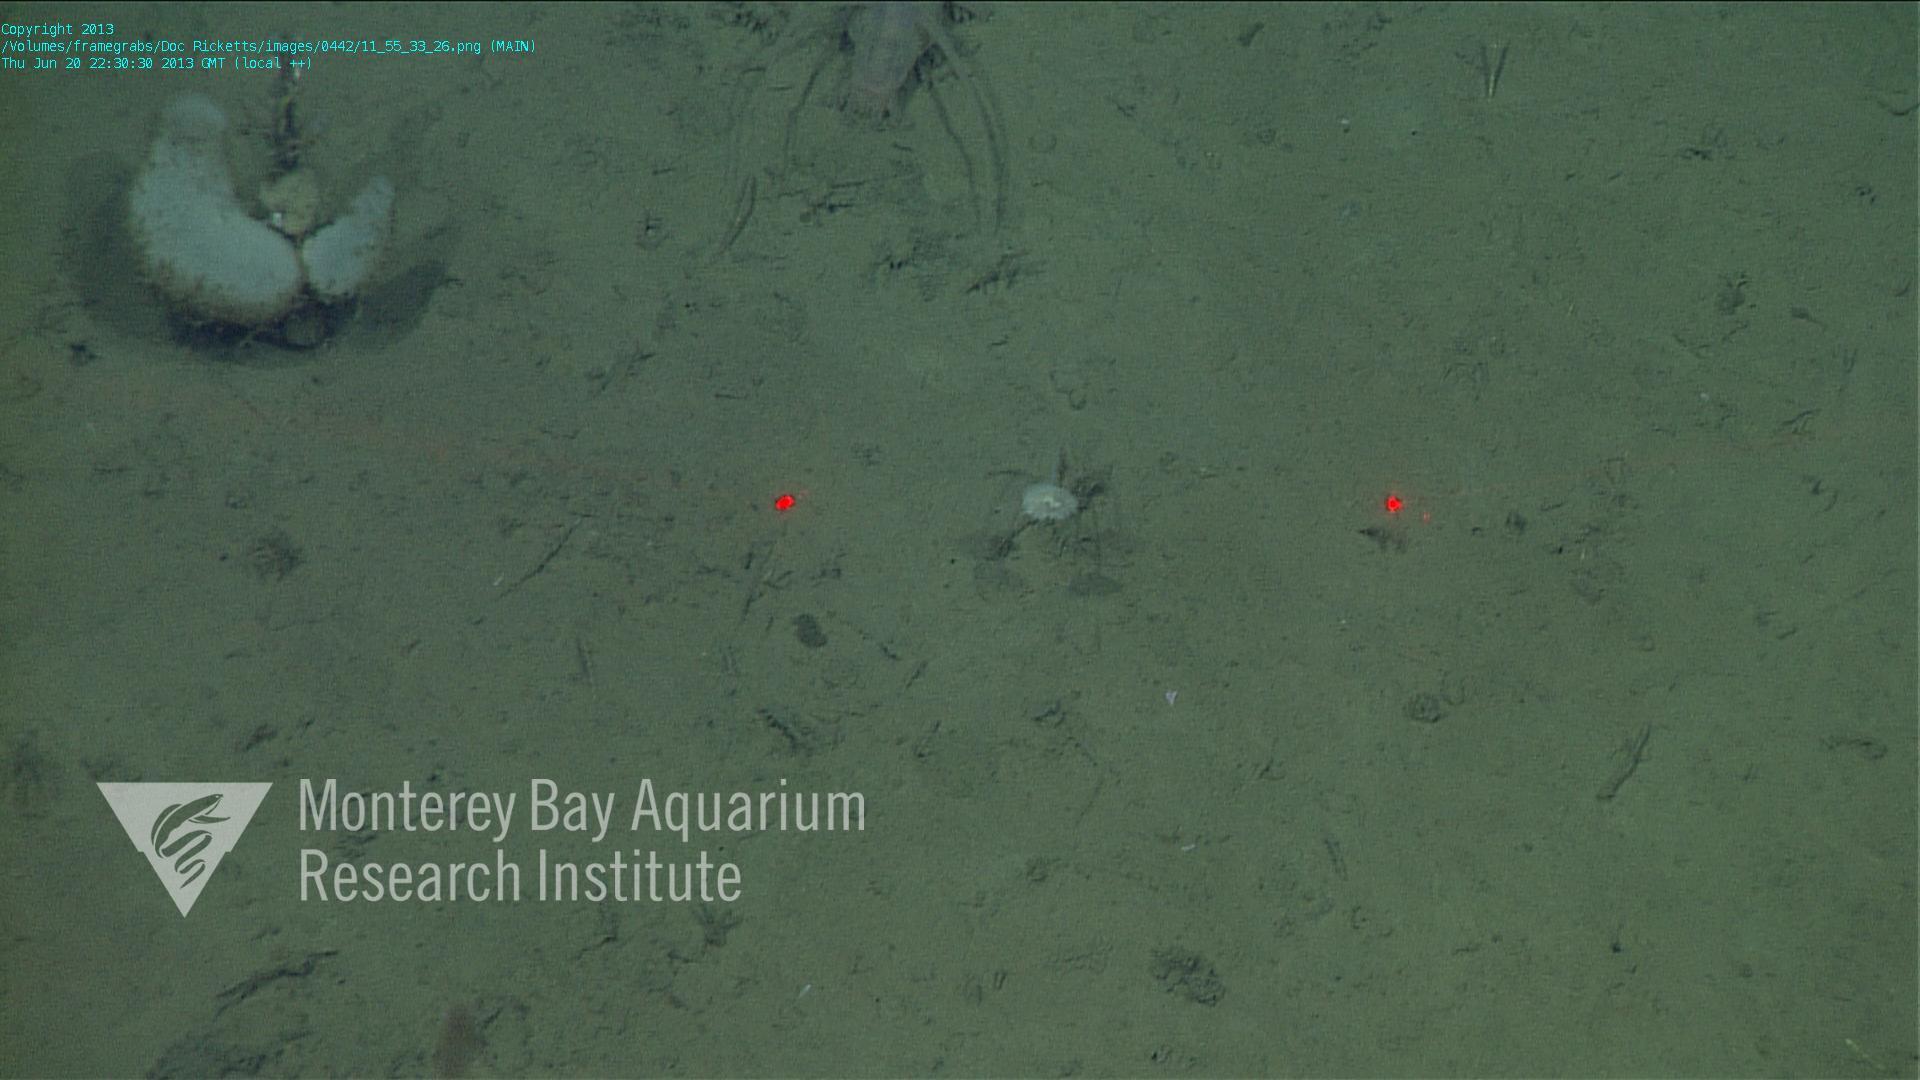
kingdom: Animalia
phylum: Porifera
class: Demospongiae
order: Poecilosclerida
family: Cladorhizidae
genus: Cladorhiza
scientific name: Cladorhiza
